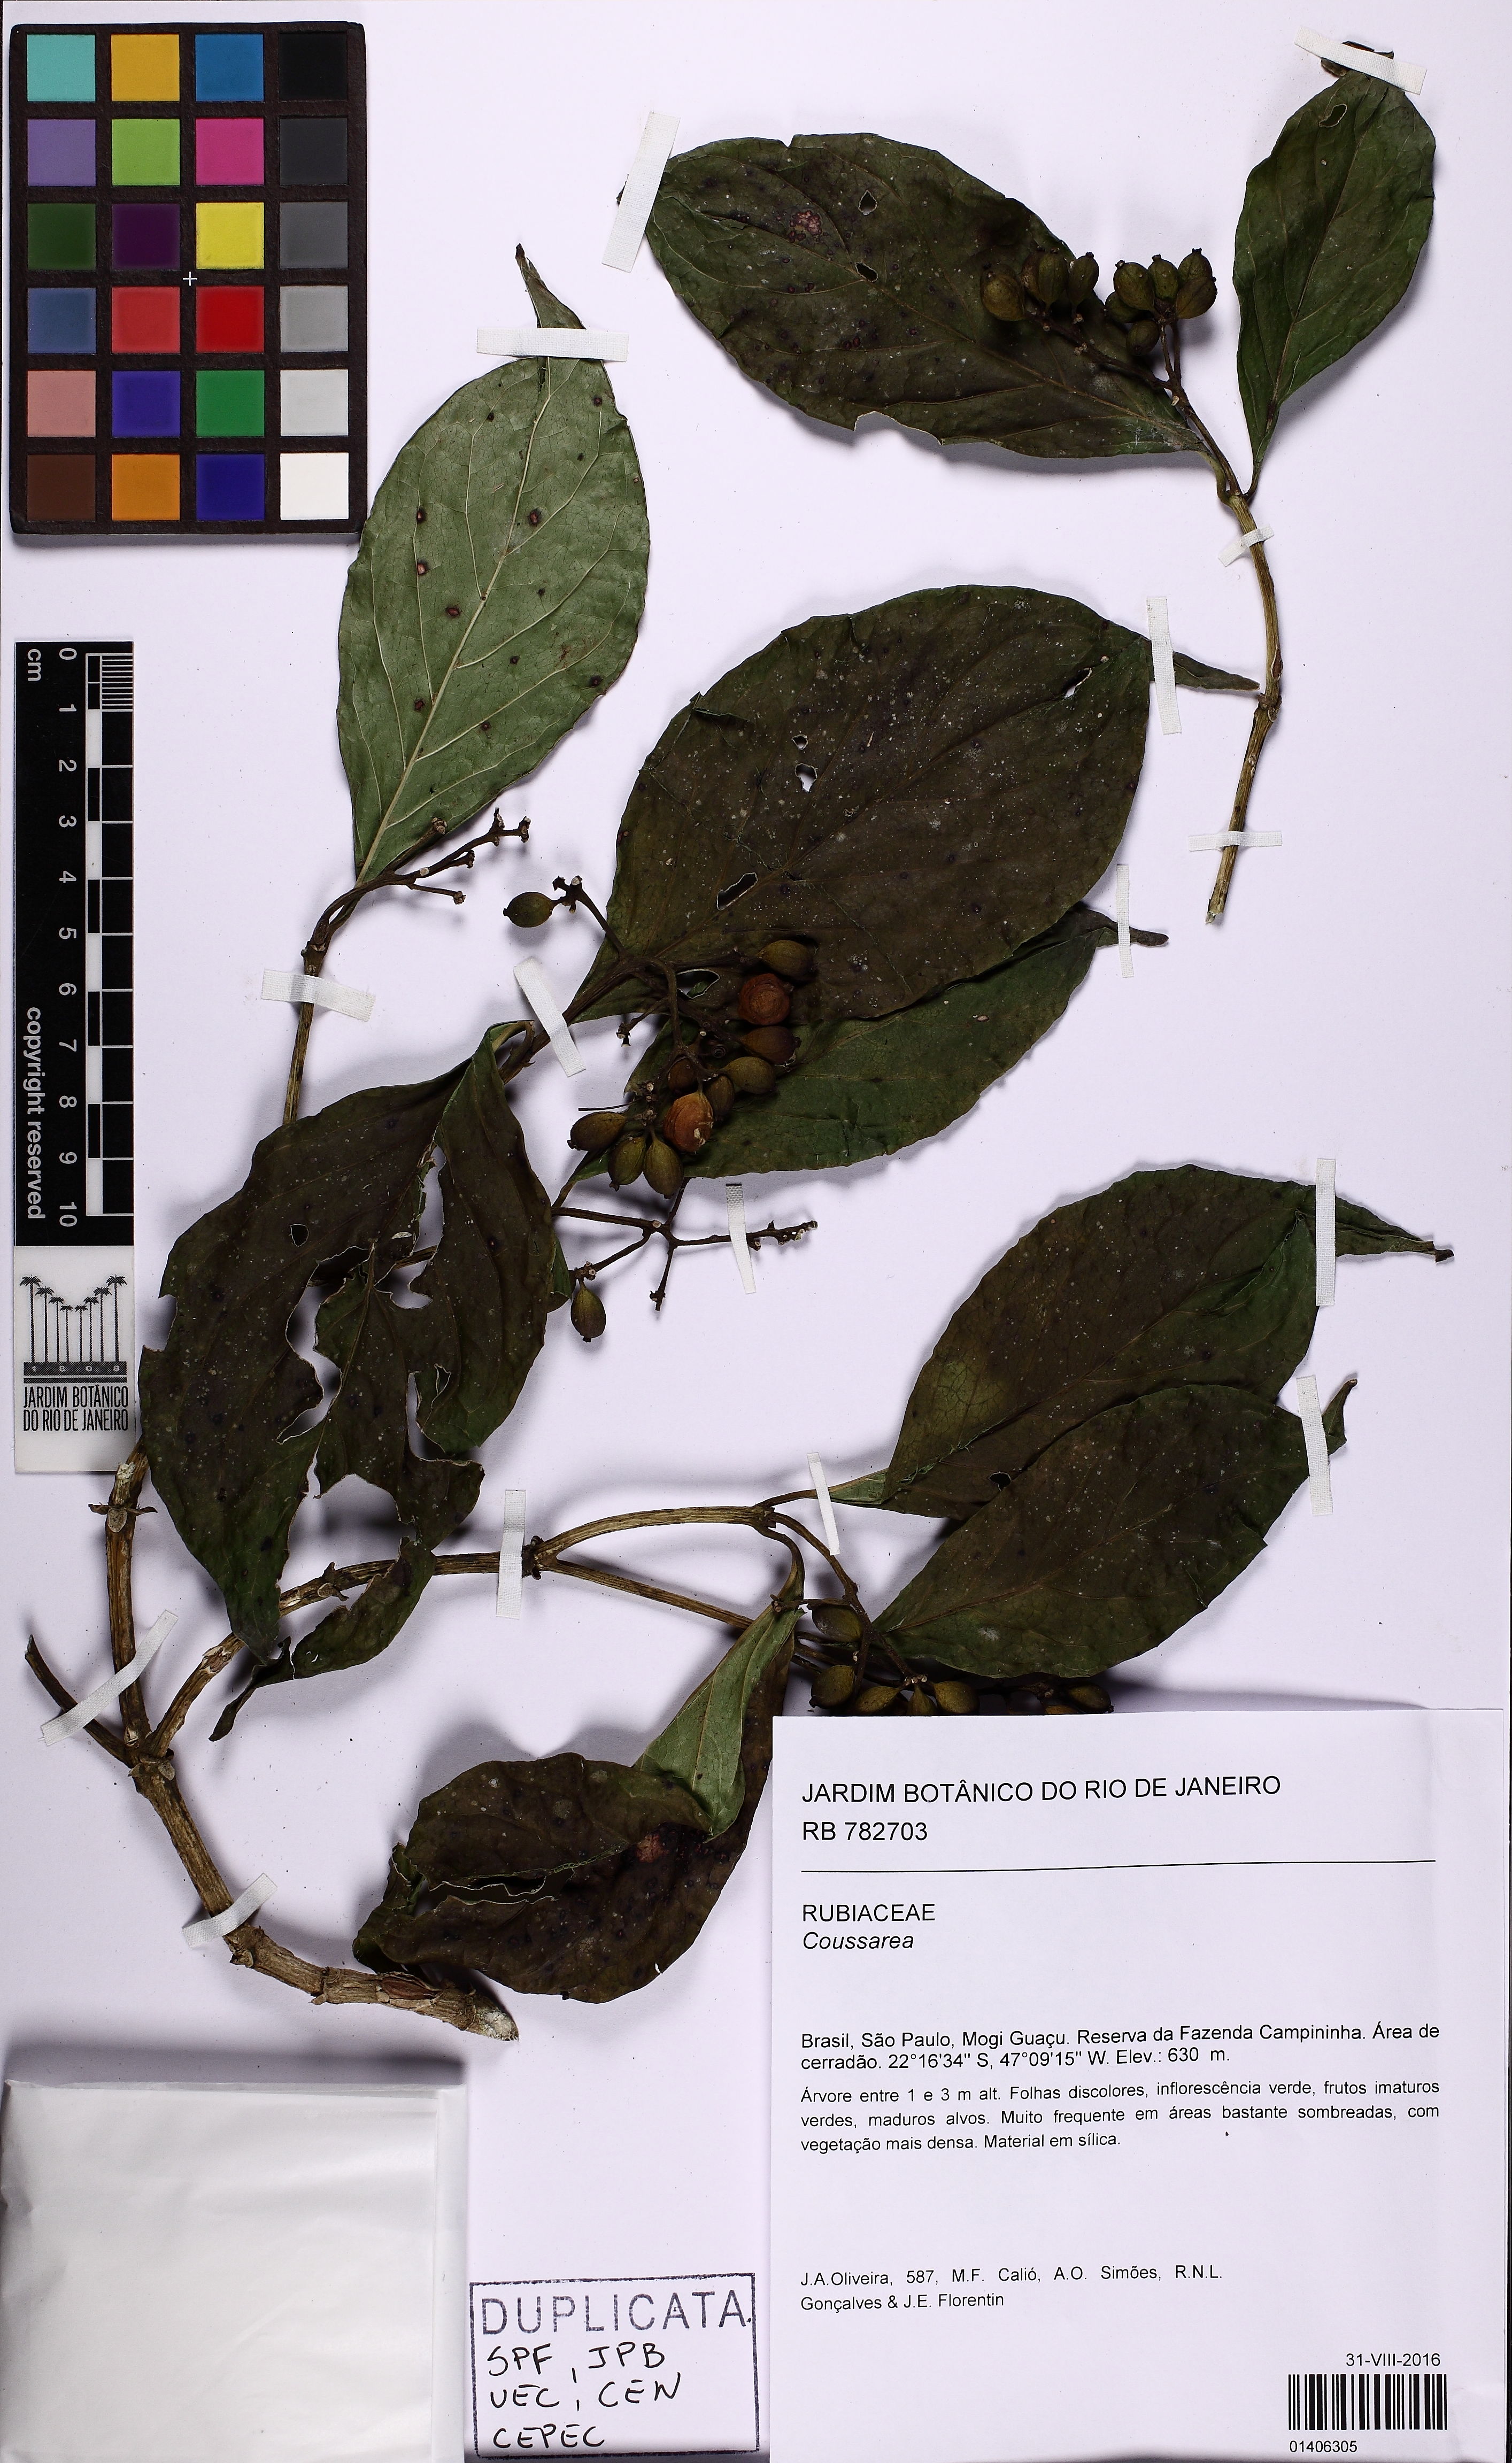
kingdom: Plantae
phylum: Tracheophyta
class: Magnoliopsida
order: Gentianales
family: Rubiaceae
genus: Coussarea
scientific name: Coussarea
